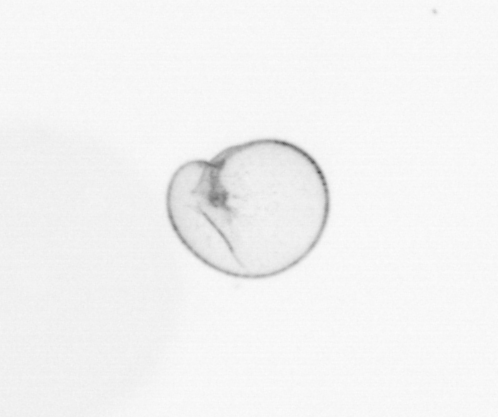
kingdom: Chromista
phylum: Myzozoa
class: Dinophyceae
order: Noctilucales
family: Noctilucaceae
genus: Noctiluca
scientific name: Noctiluca scintillans
